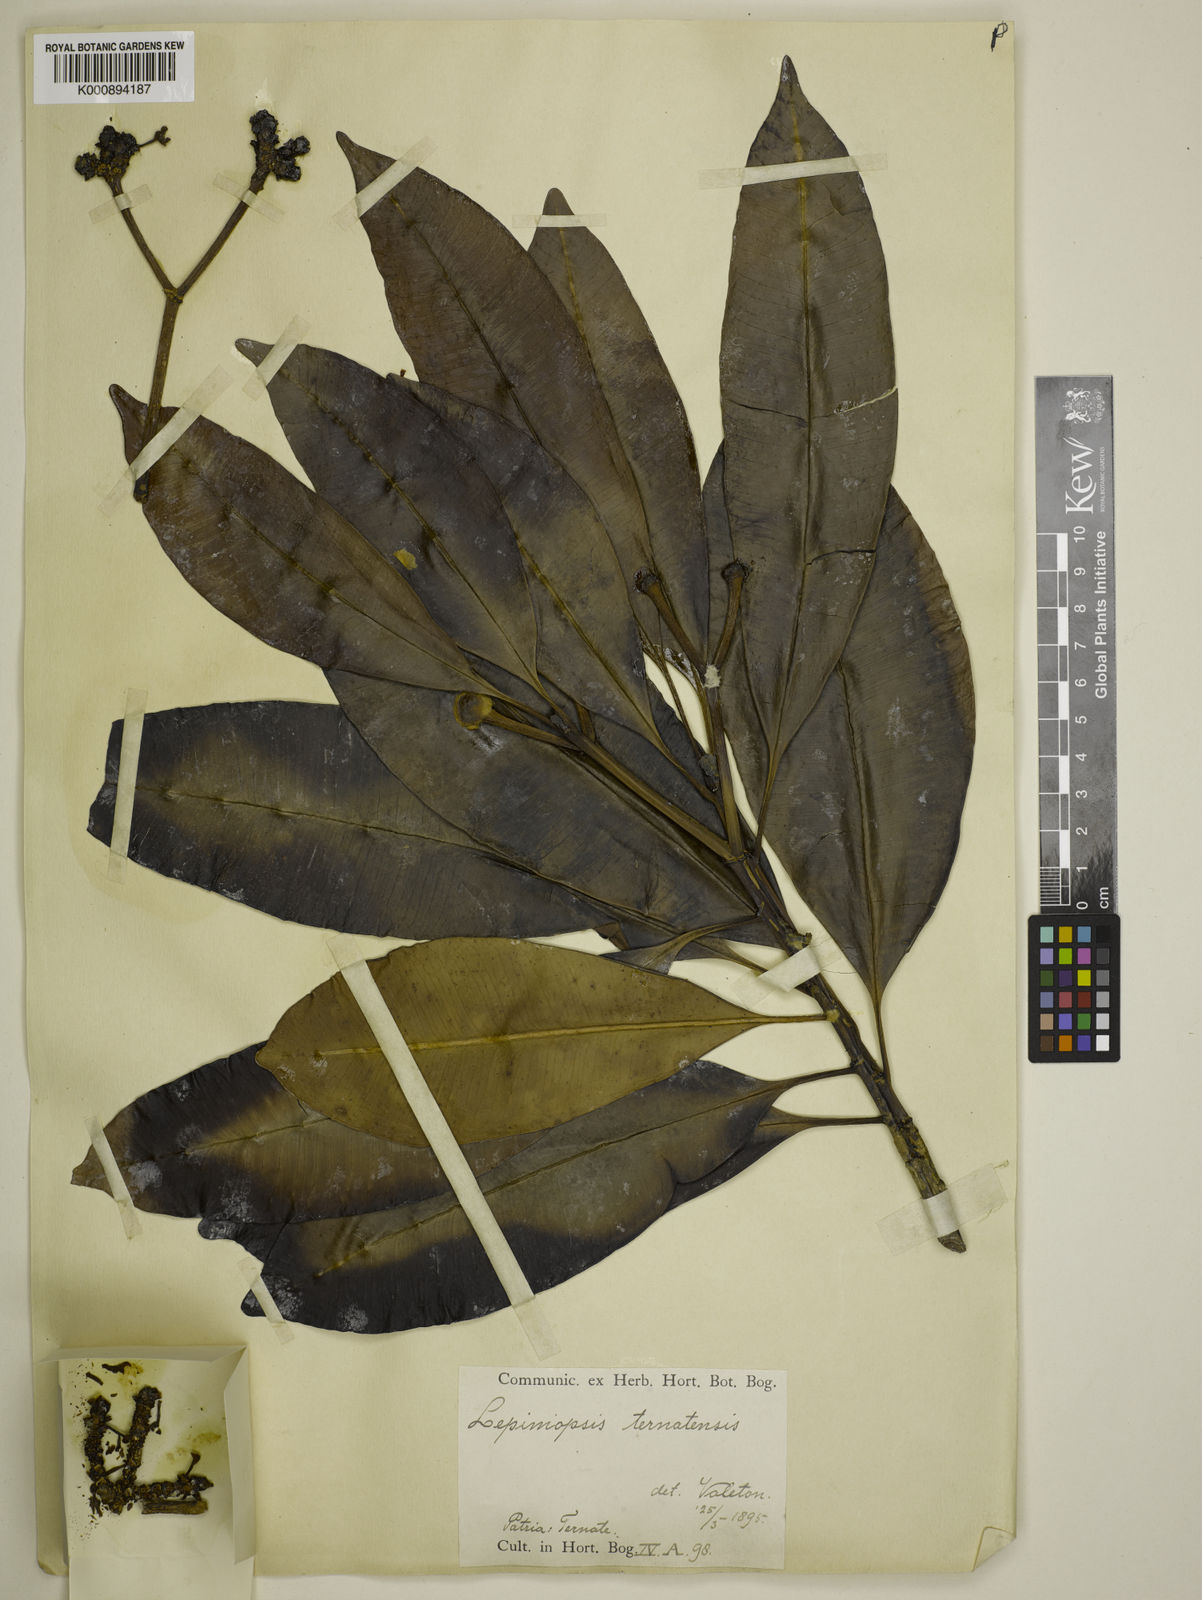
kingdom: Plantae
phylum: Tracheophyta
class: Magnoliopsida
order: Gentianales
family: Apocynaceae
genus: Lepiniopsis
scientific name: Lepiniopsis ternatensis
